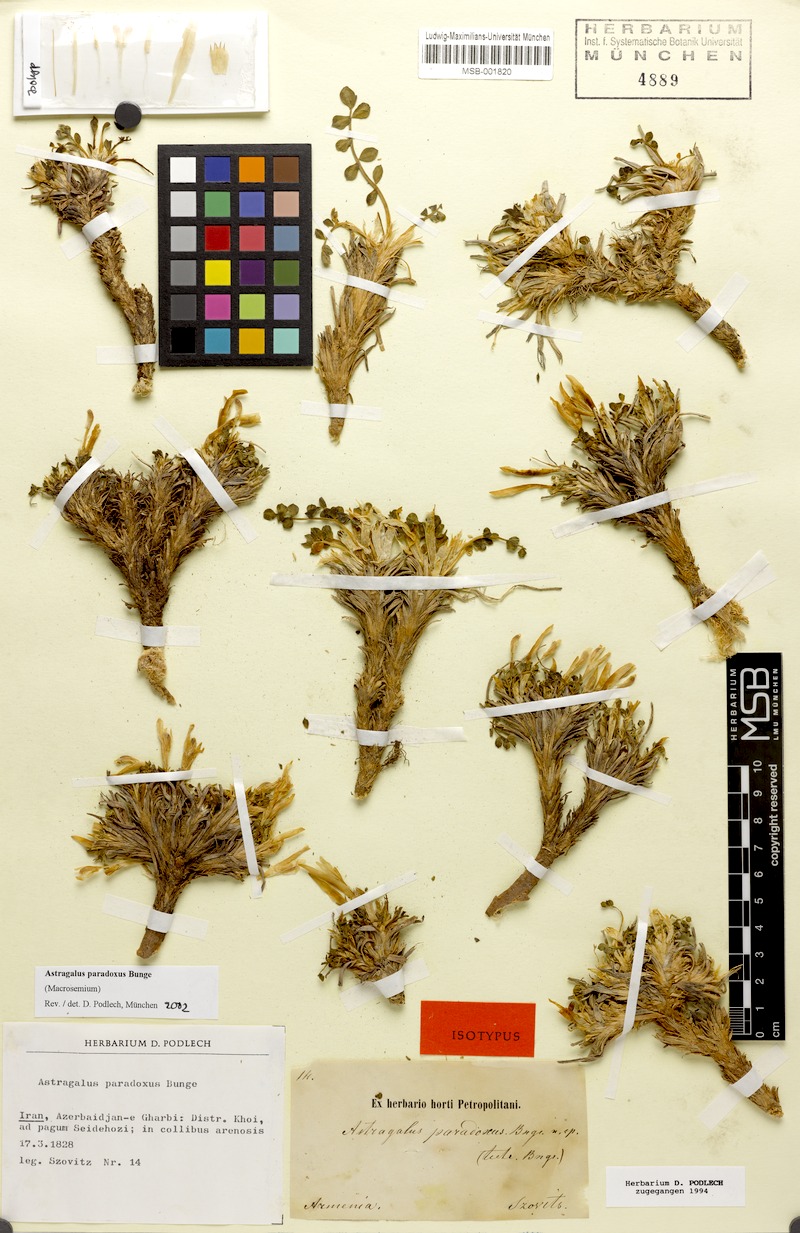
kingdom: Plantae
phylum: Tracheophyta
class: Magnoliopsida
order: Fabales
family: Fabaceae
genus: Astragalus
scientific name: Astragalus paradoxus
